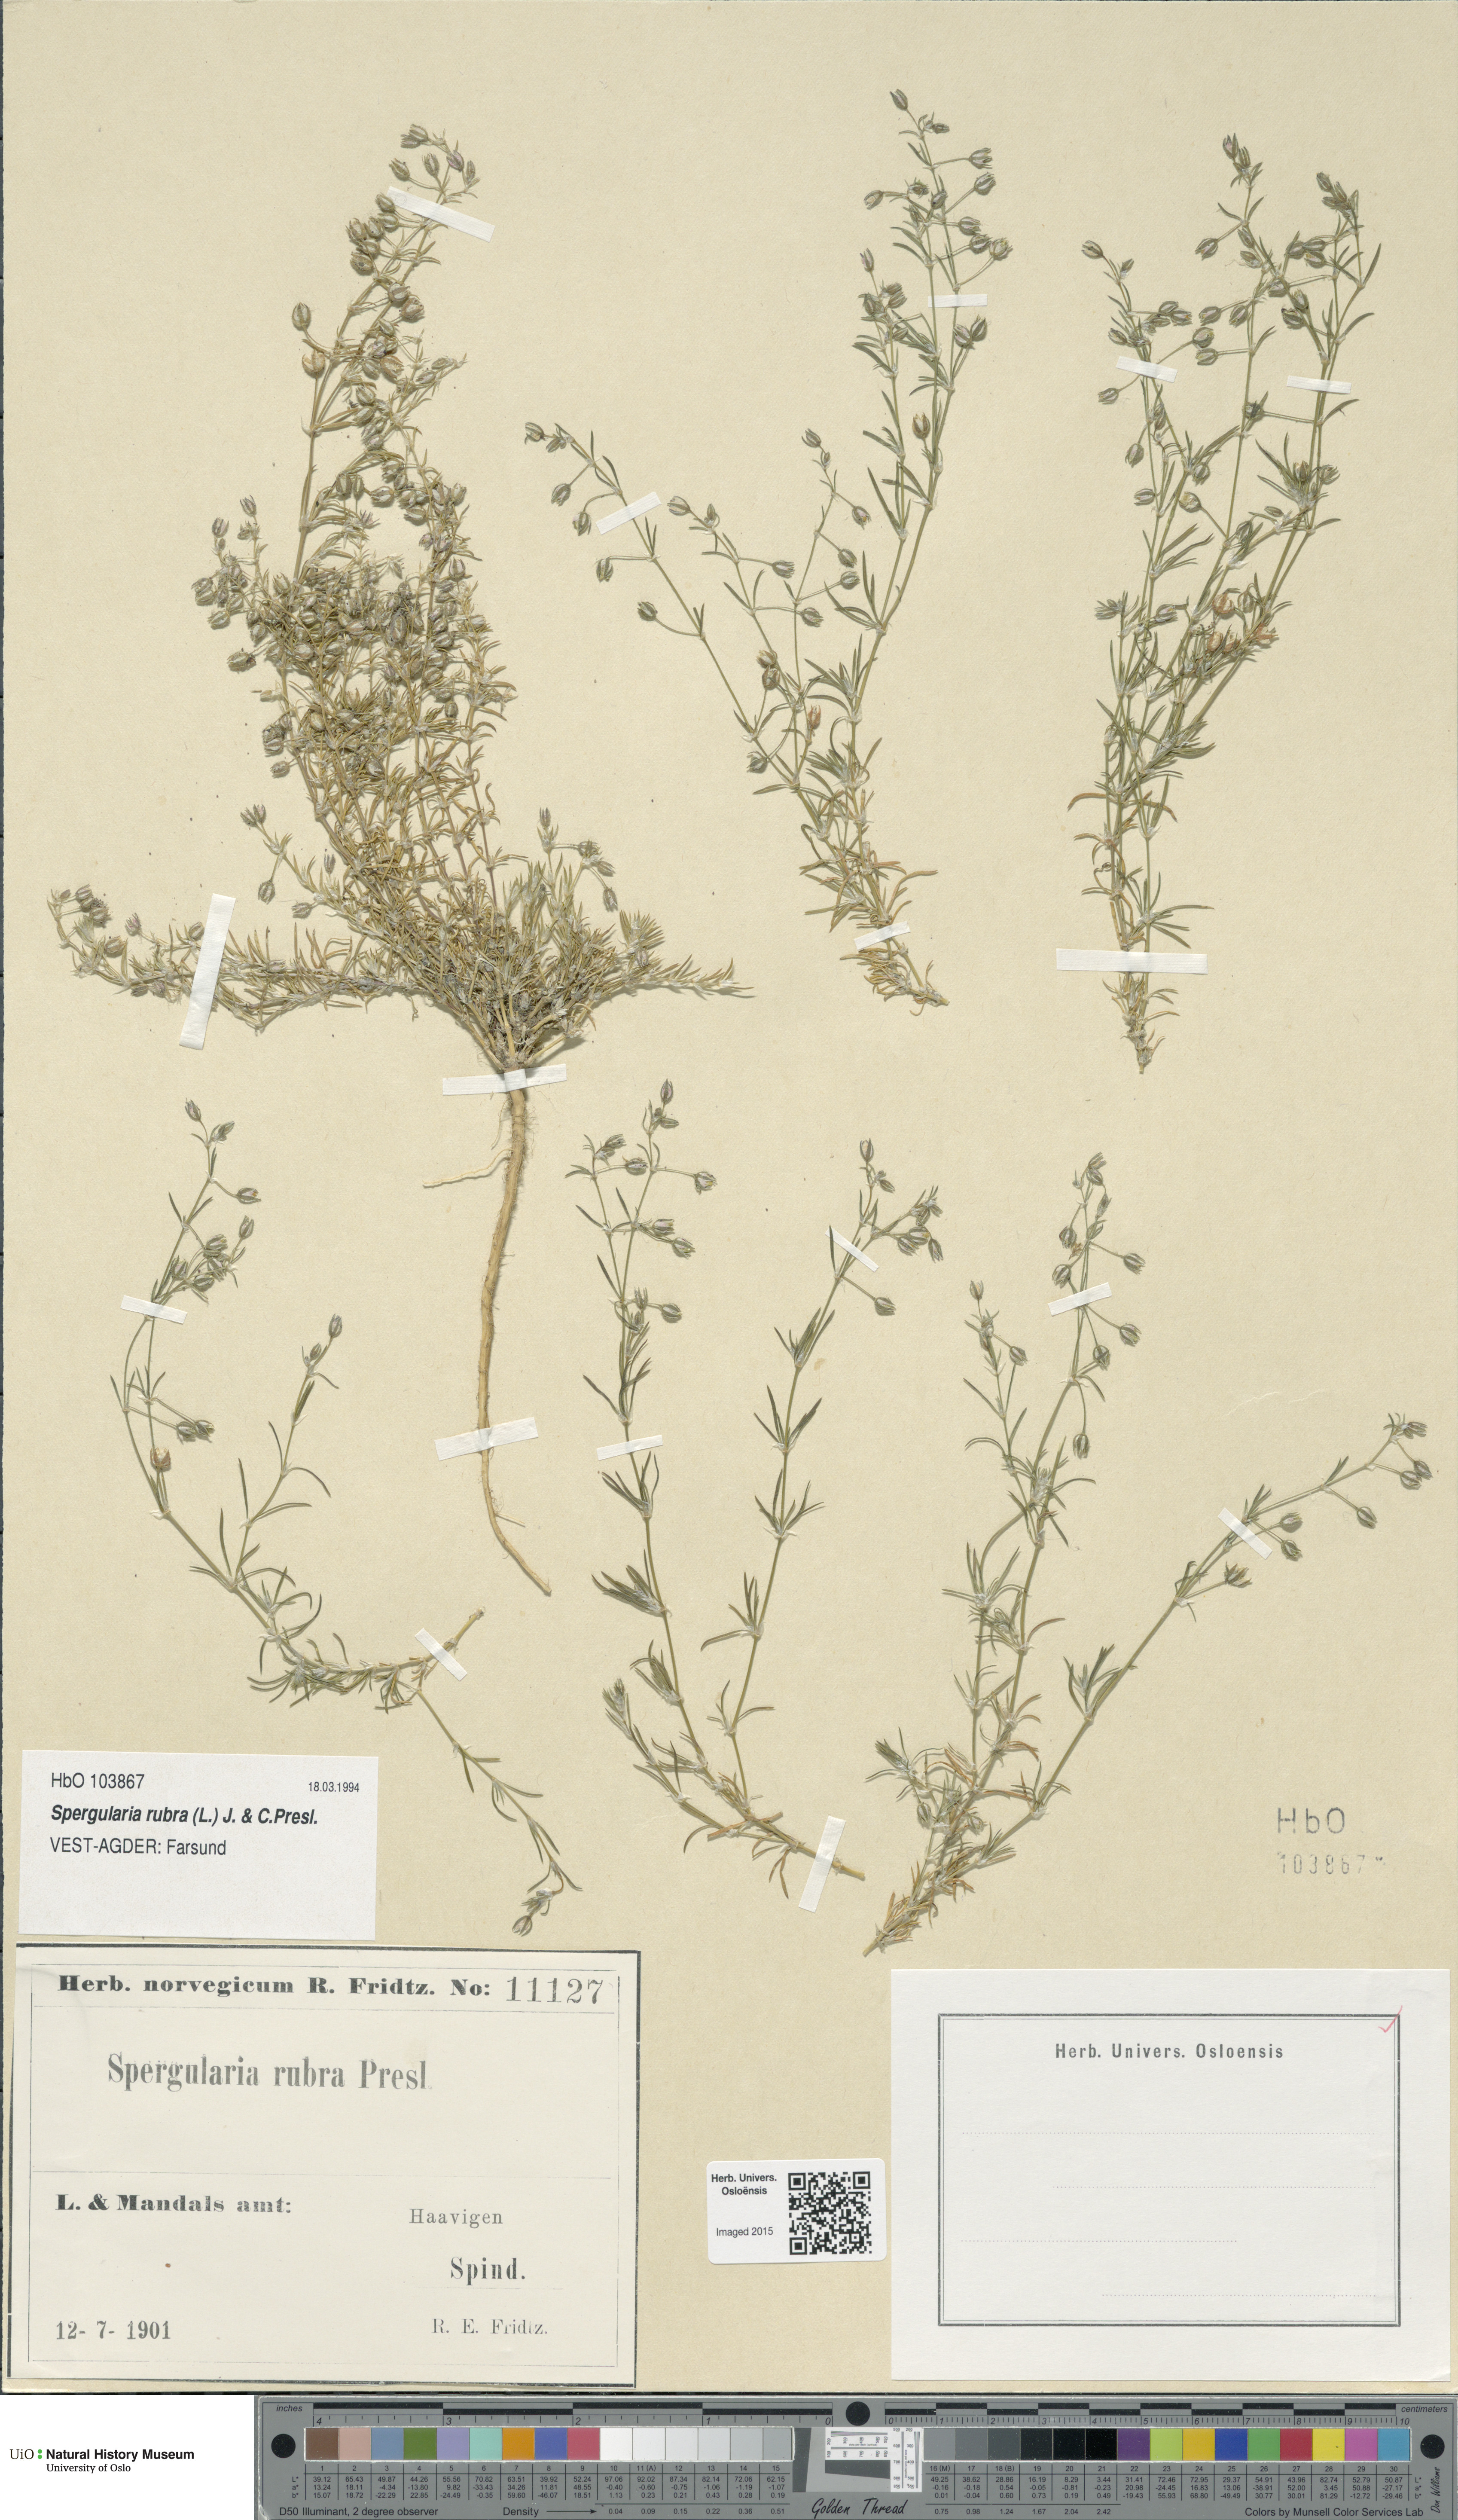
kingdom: Plantae
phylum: Tracheophyta
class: Magnoliopsida
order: Caryophyllales
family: Caryophyllaceae
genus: Spergularia
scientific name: Spergularia rubra
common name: Red sand-spurrey
